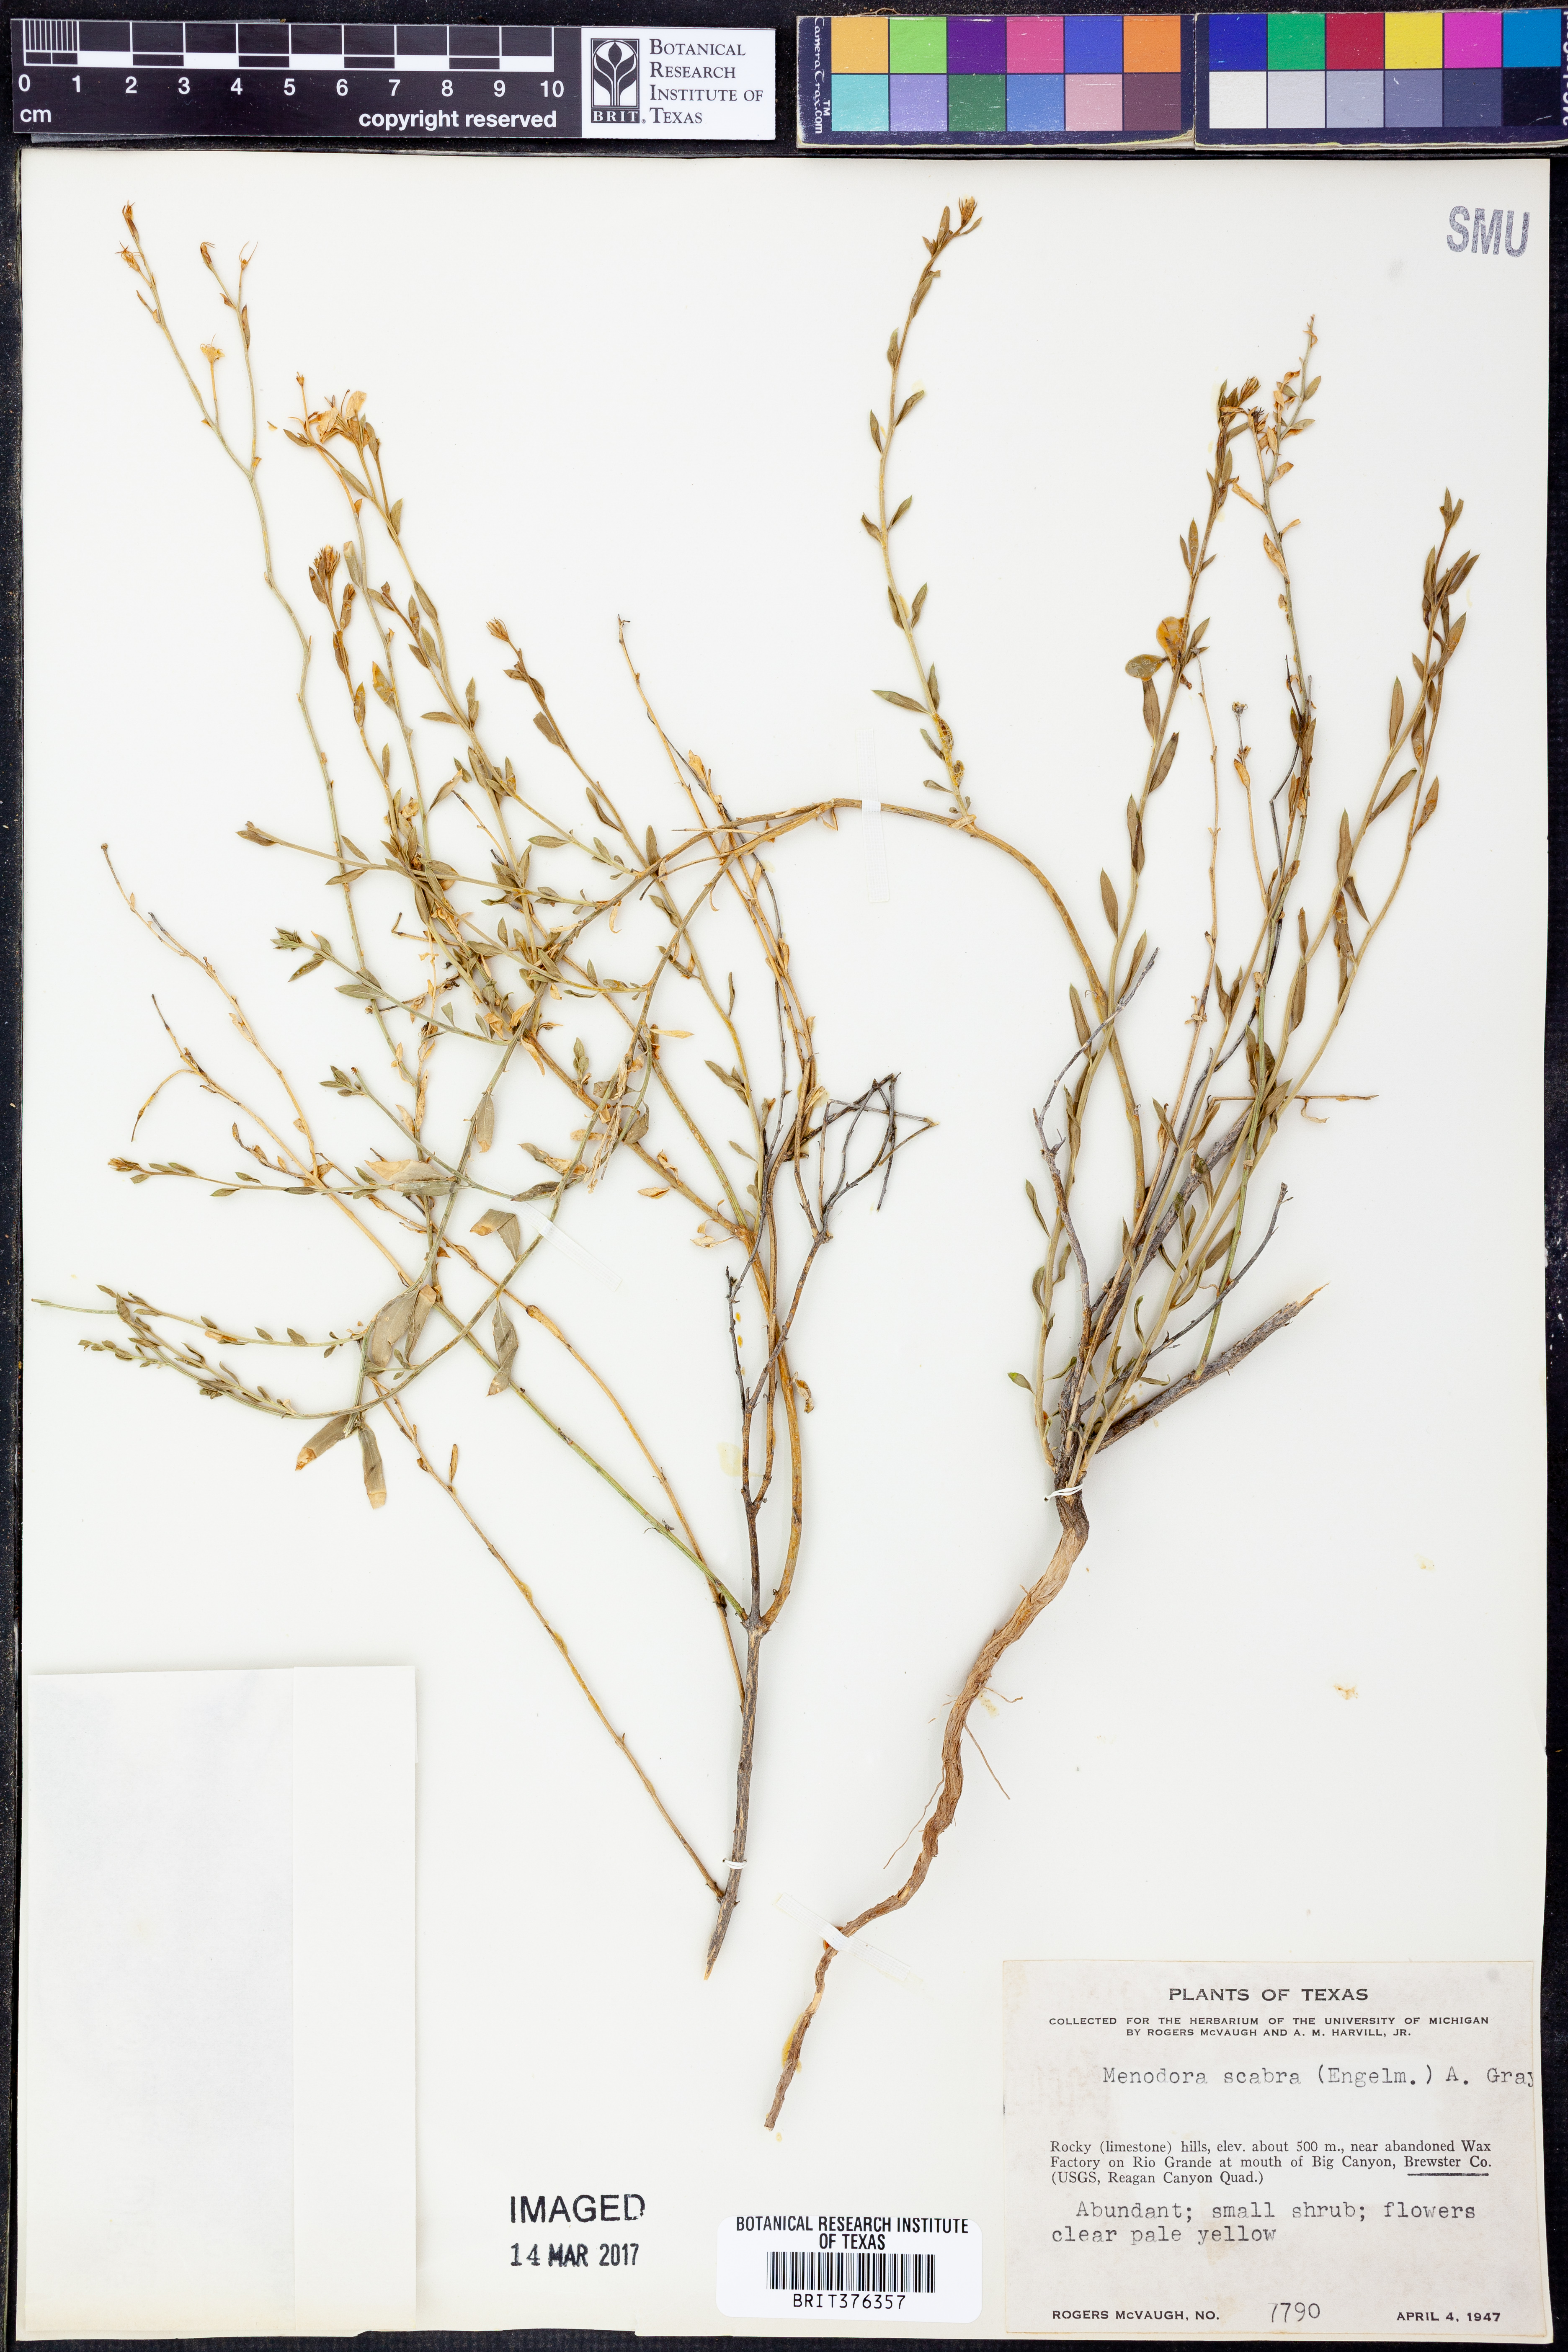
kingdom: Plantae
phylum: Tracheophyta
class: Magnoliopsida
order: Lamiales
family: Oleaceae
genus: Menodora
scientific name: Menodora scabra
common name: Rough menodora
